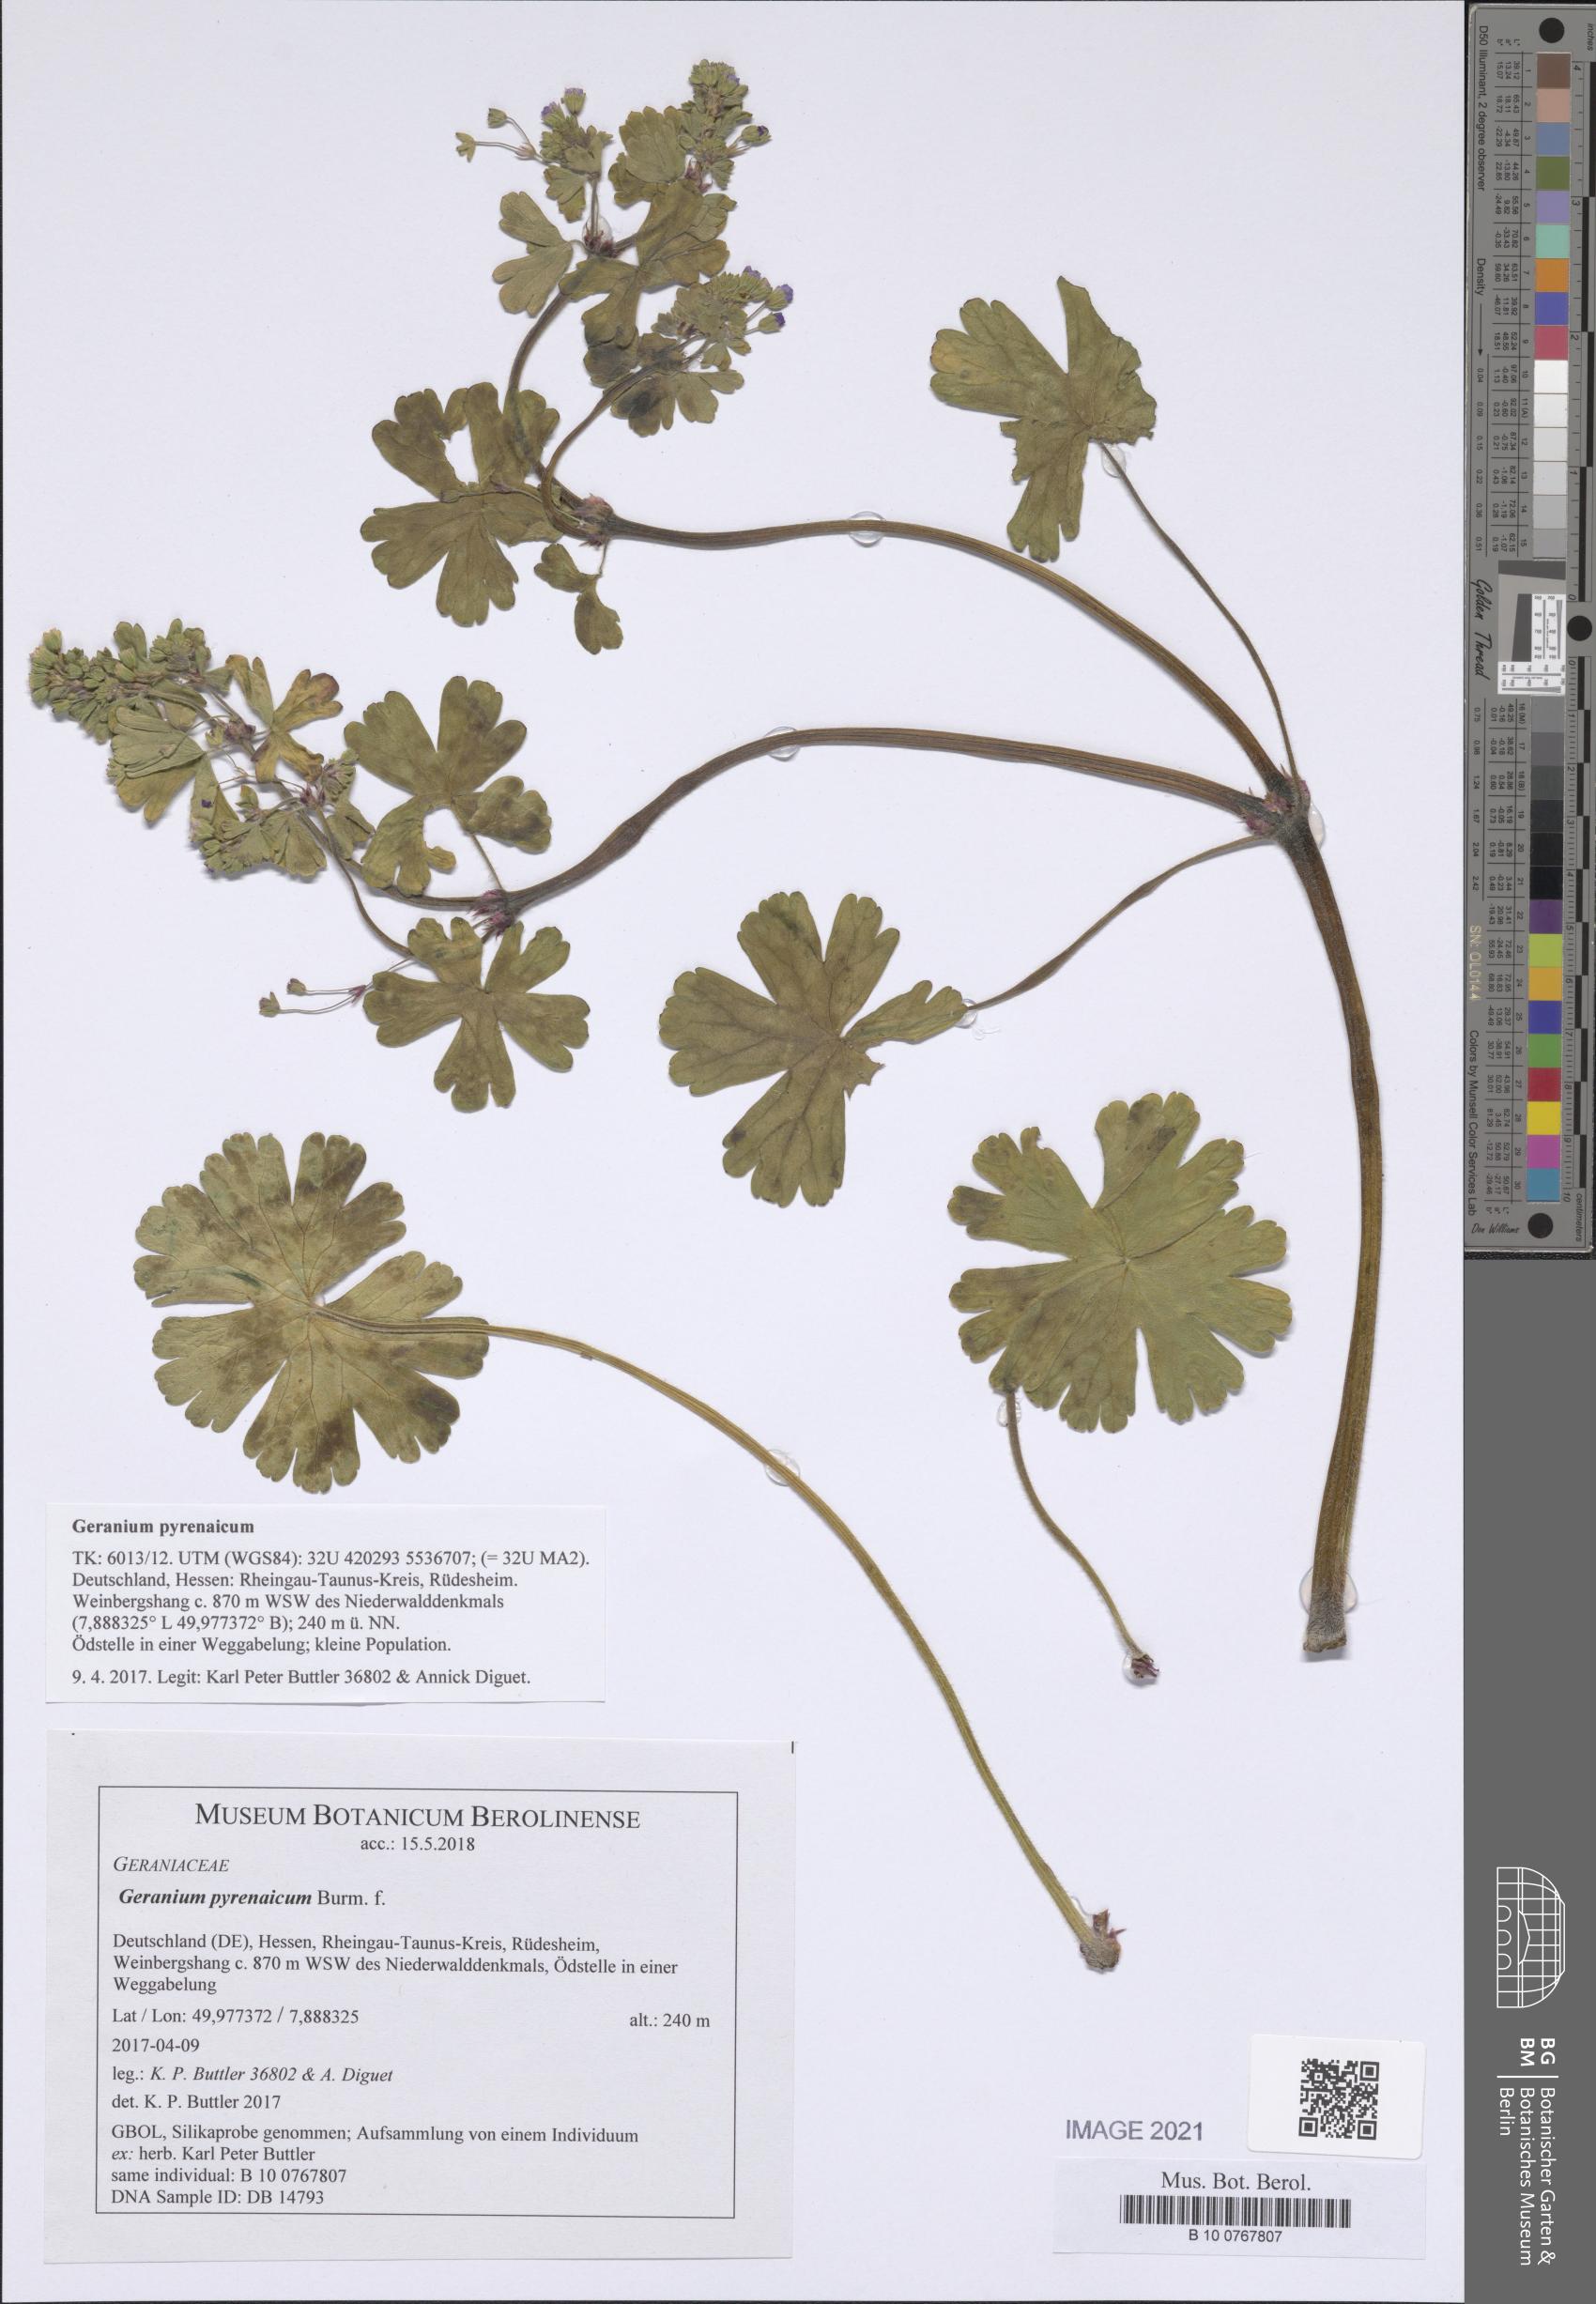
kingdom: Plantae
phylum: Tracheophyta
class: Magnoliopsida
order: Geraniales
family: Geraniaceae
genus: Geranium
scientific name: Geranium pyrenaicum
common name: Hedgerow crane's-bill
